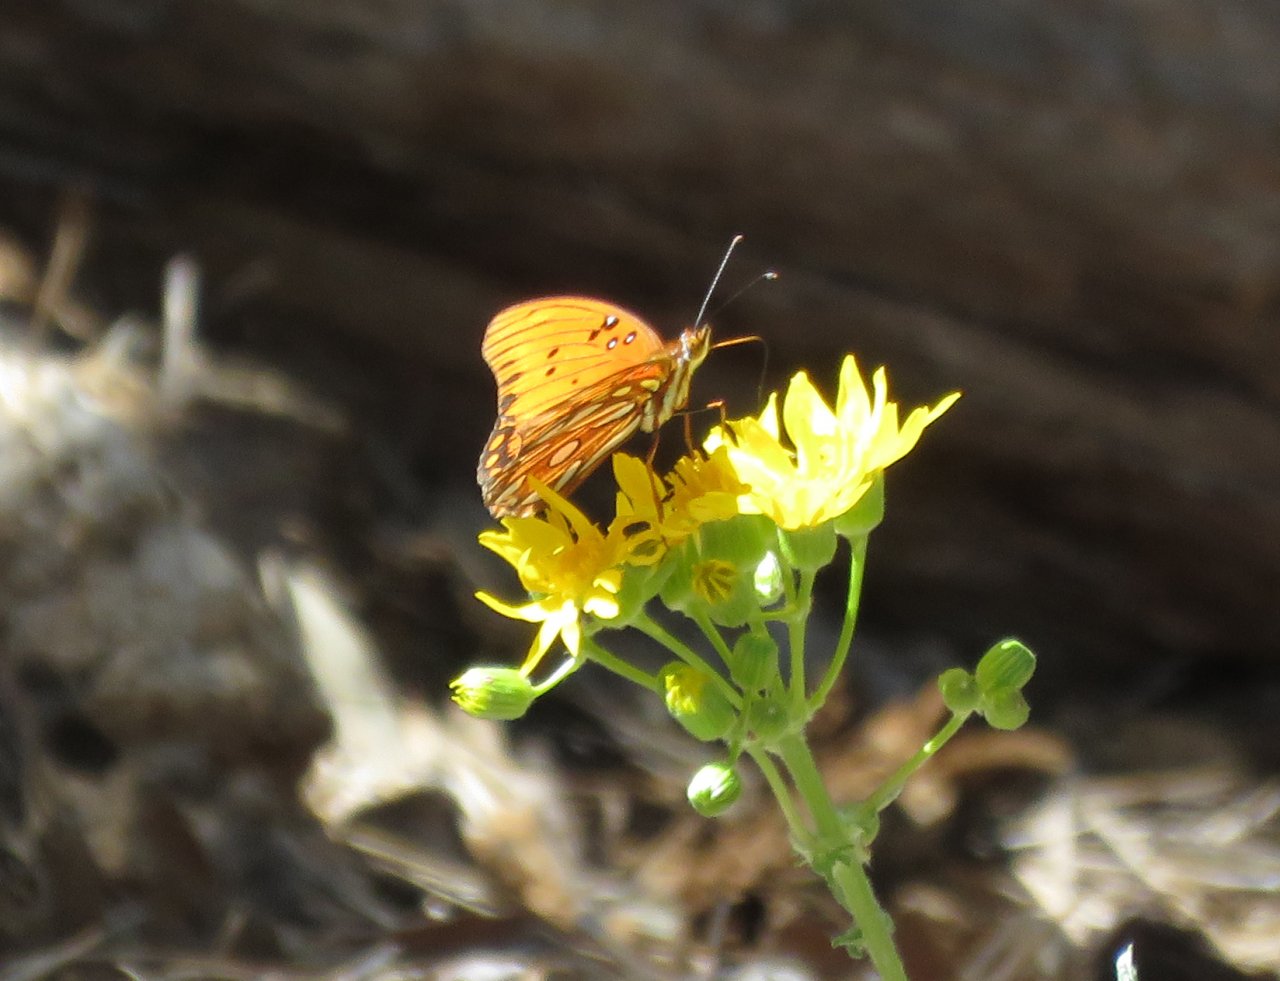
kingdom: Animalia
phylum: Arthropoda
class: Insecta
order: Lepidoptera
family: Nymphalidae
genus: Dione
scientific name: Dione vanillae
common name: Gulf Fritillary
